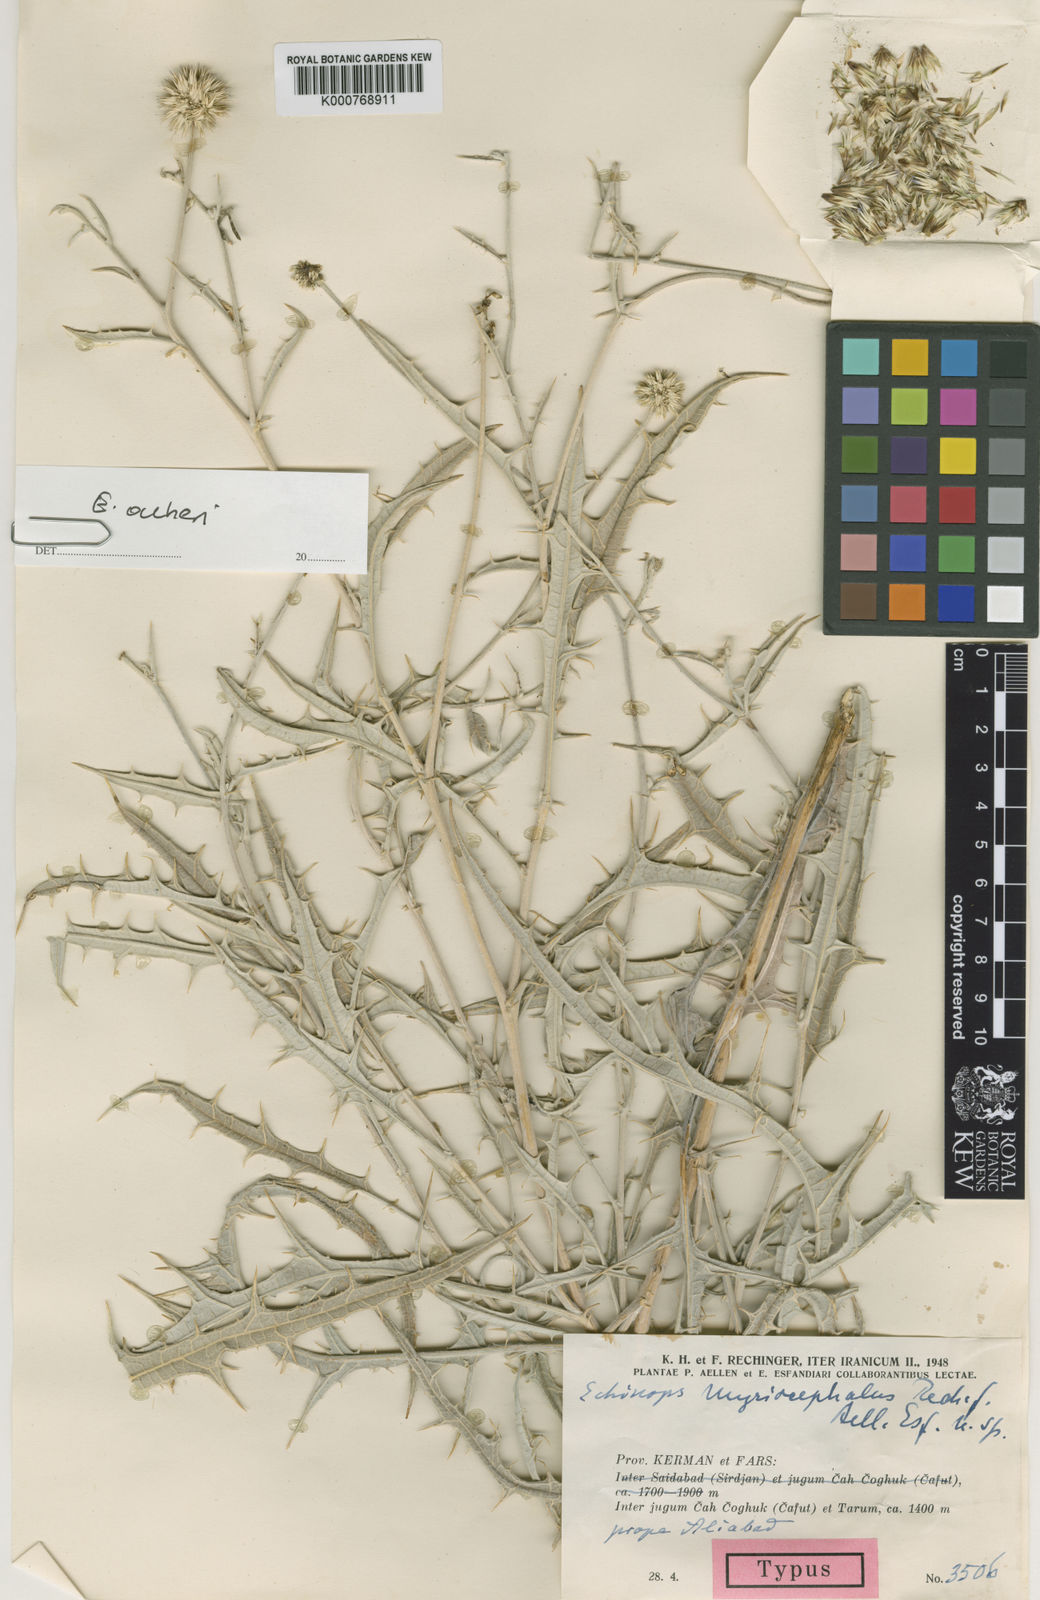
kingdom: Plantae
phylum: Tracheophyta
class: Magnoliopsida
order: Asterales
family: Asteraceae
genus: Echinops
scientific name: Echinops aucheri
